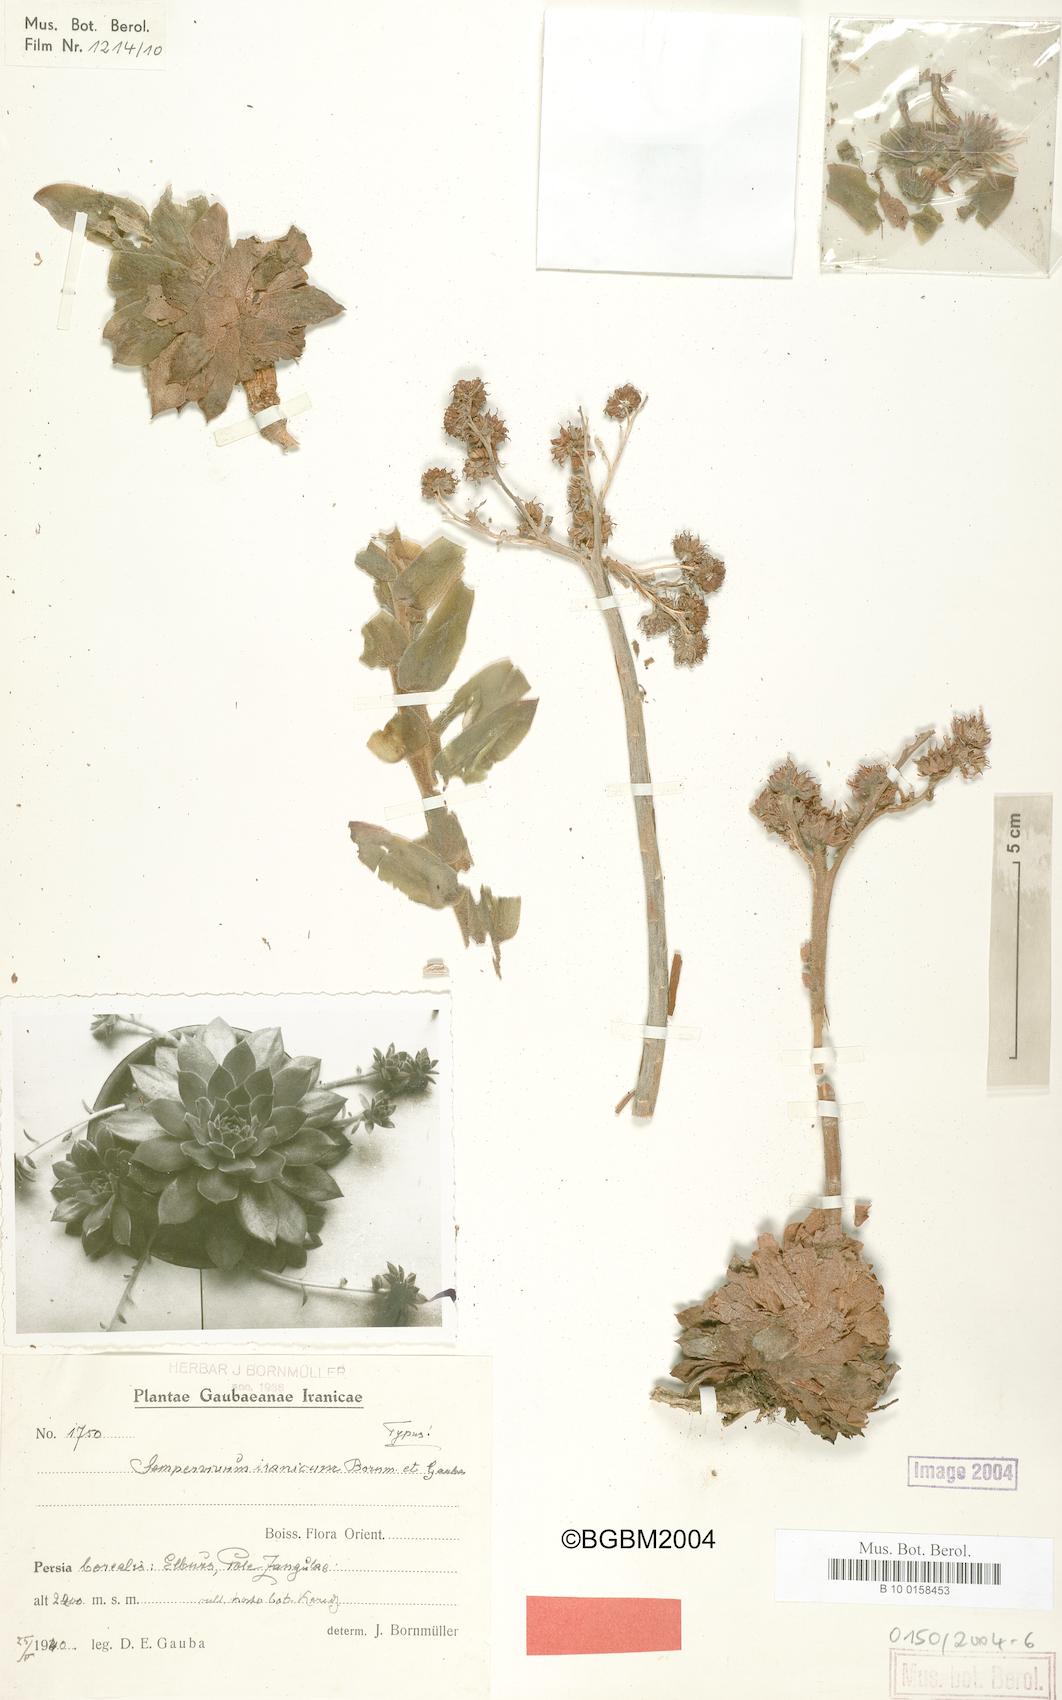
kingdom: Plantae
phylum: Tracheophyta
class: Magnoliopsida
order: Saxifragales
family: Crassulaceae
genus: Sempervivum
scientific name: Sempervivum iranicum
